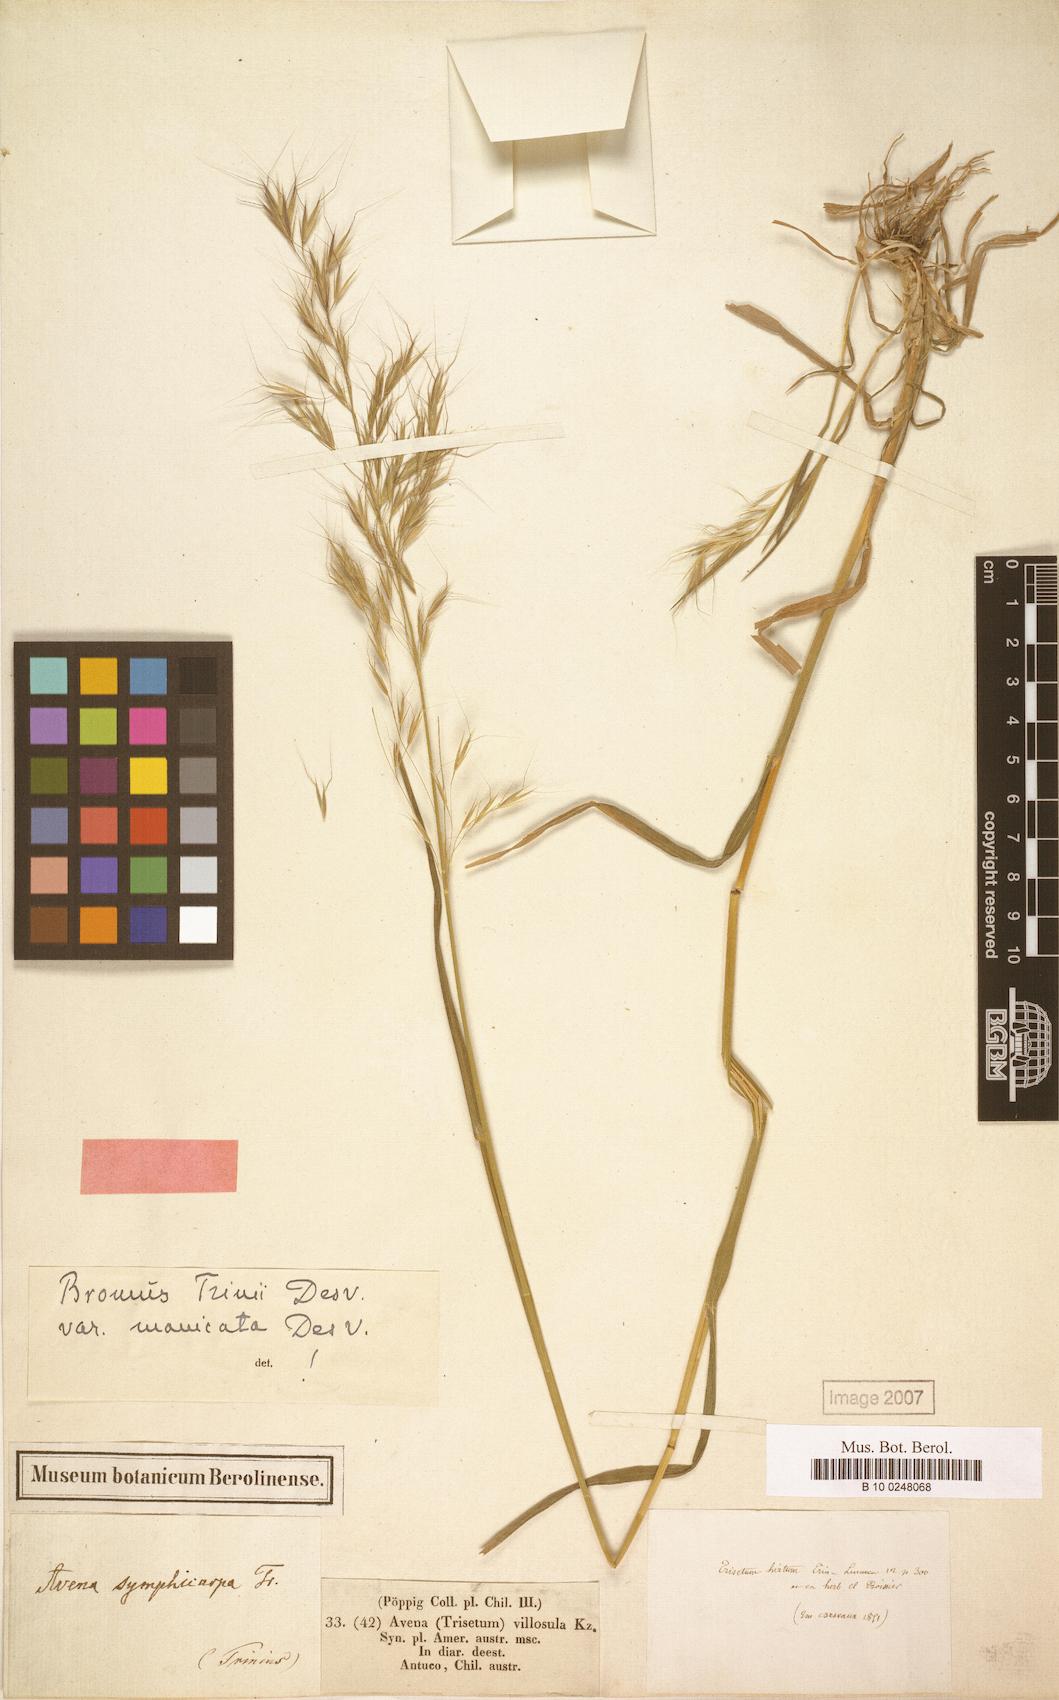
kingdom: Plantae
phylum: Tracheophyta
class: Liliopsida
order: Poales
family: Poaceae
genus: Bromus
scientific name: Bromus berteroanus
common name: Chilean chess
